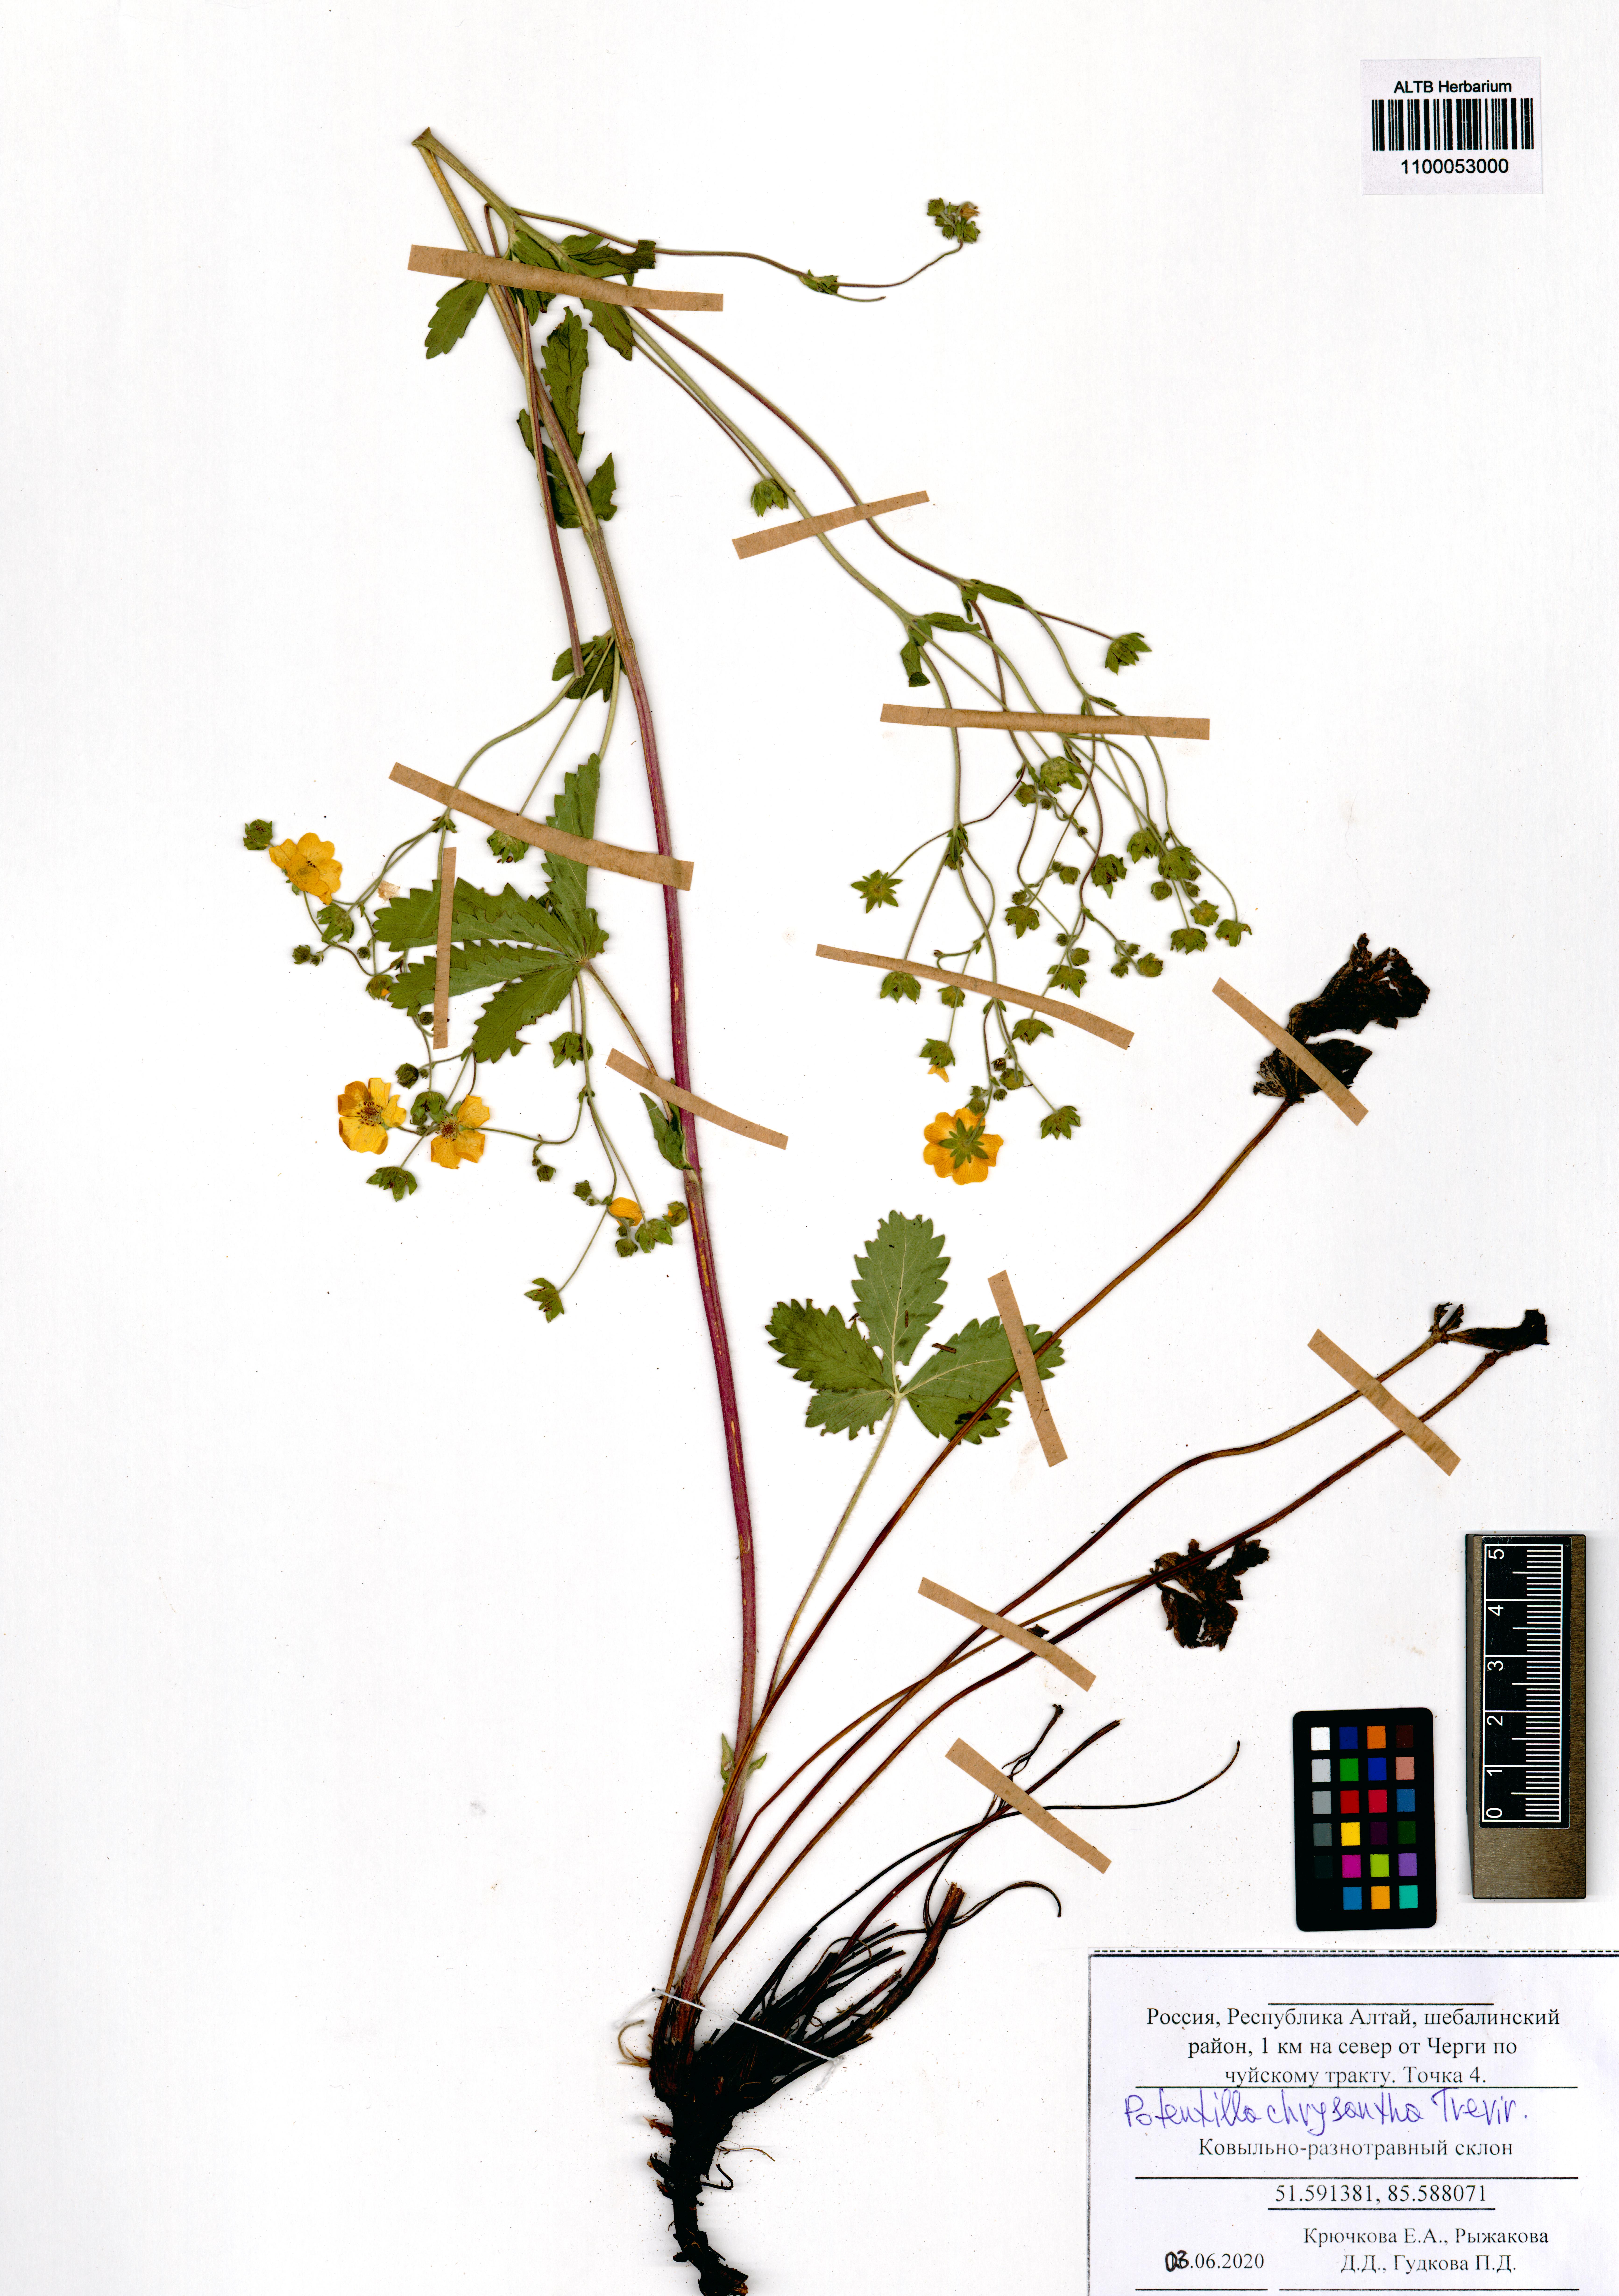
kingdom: Plantae
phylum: Tracheophyta
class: Magnoliopsida
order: Rosales
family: Rosaceae
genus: Potentilla
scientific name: Potentilla chrysantha
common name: Thuringian cinquefoil
